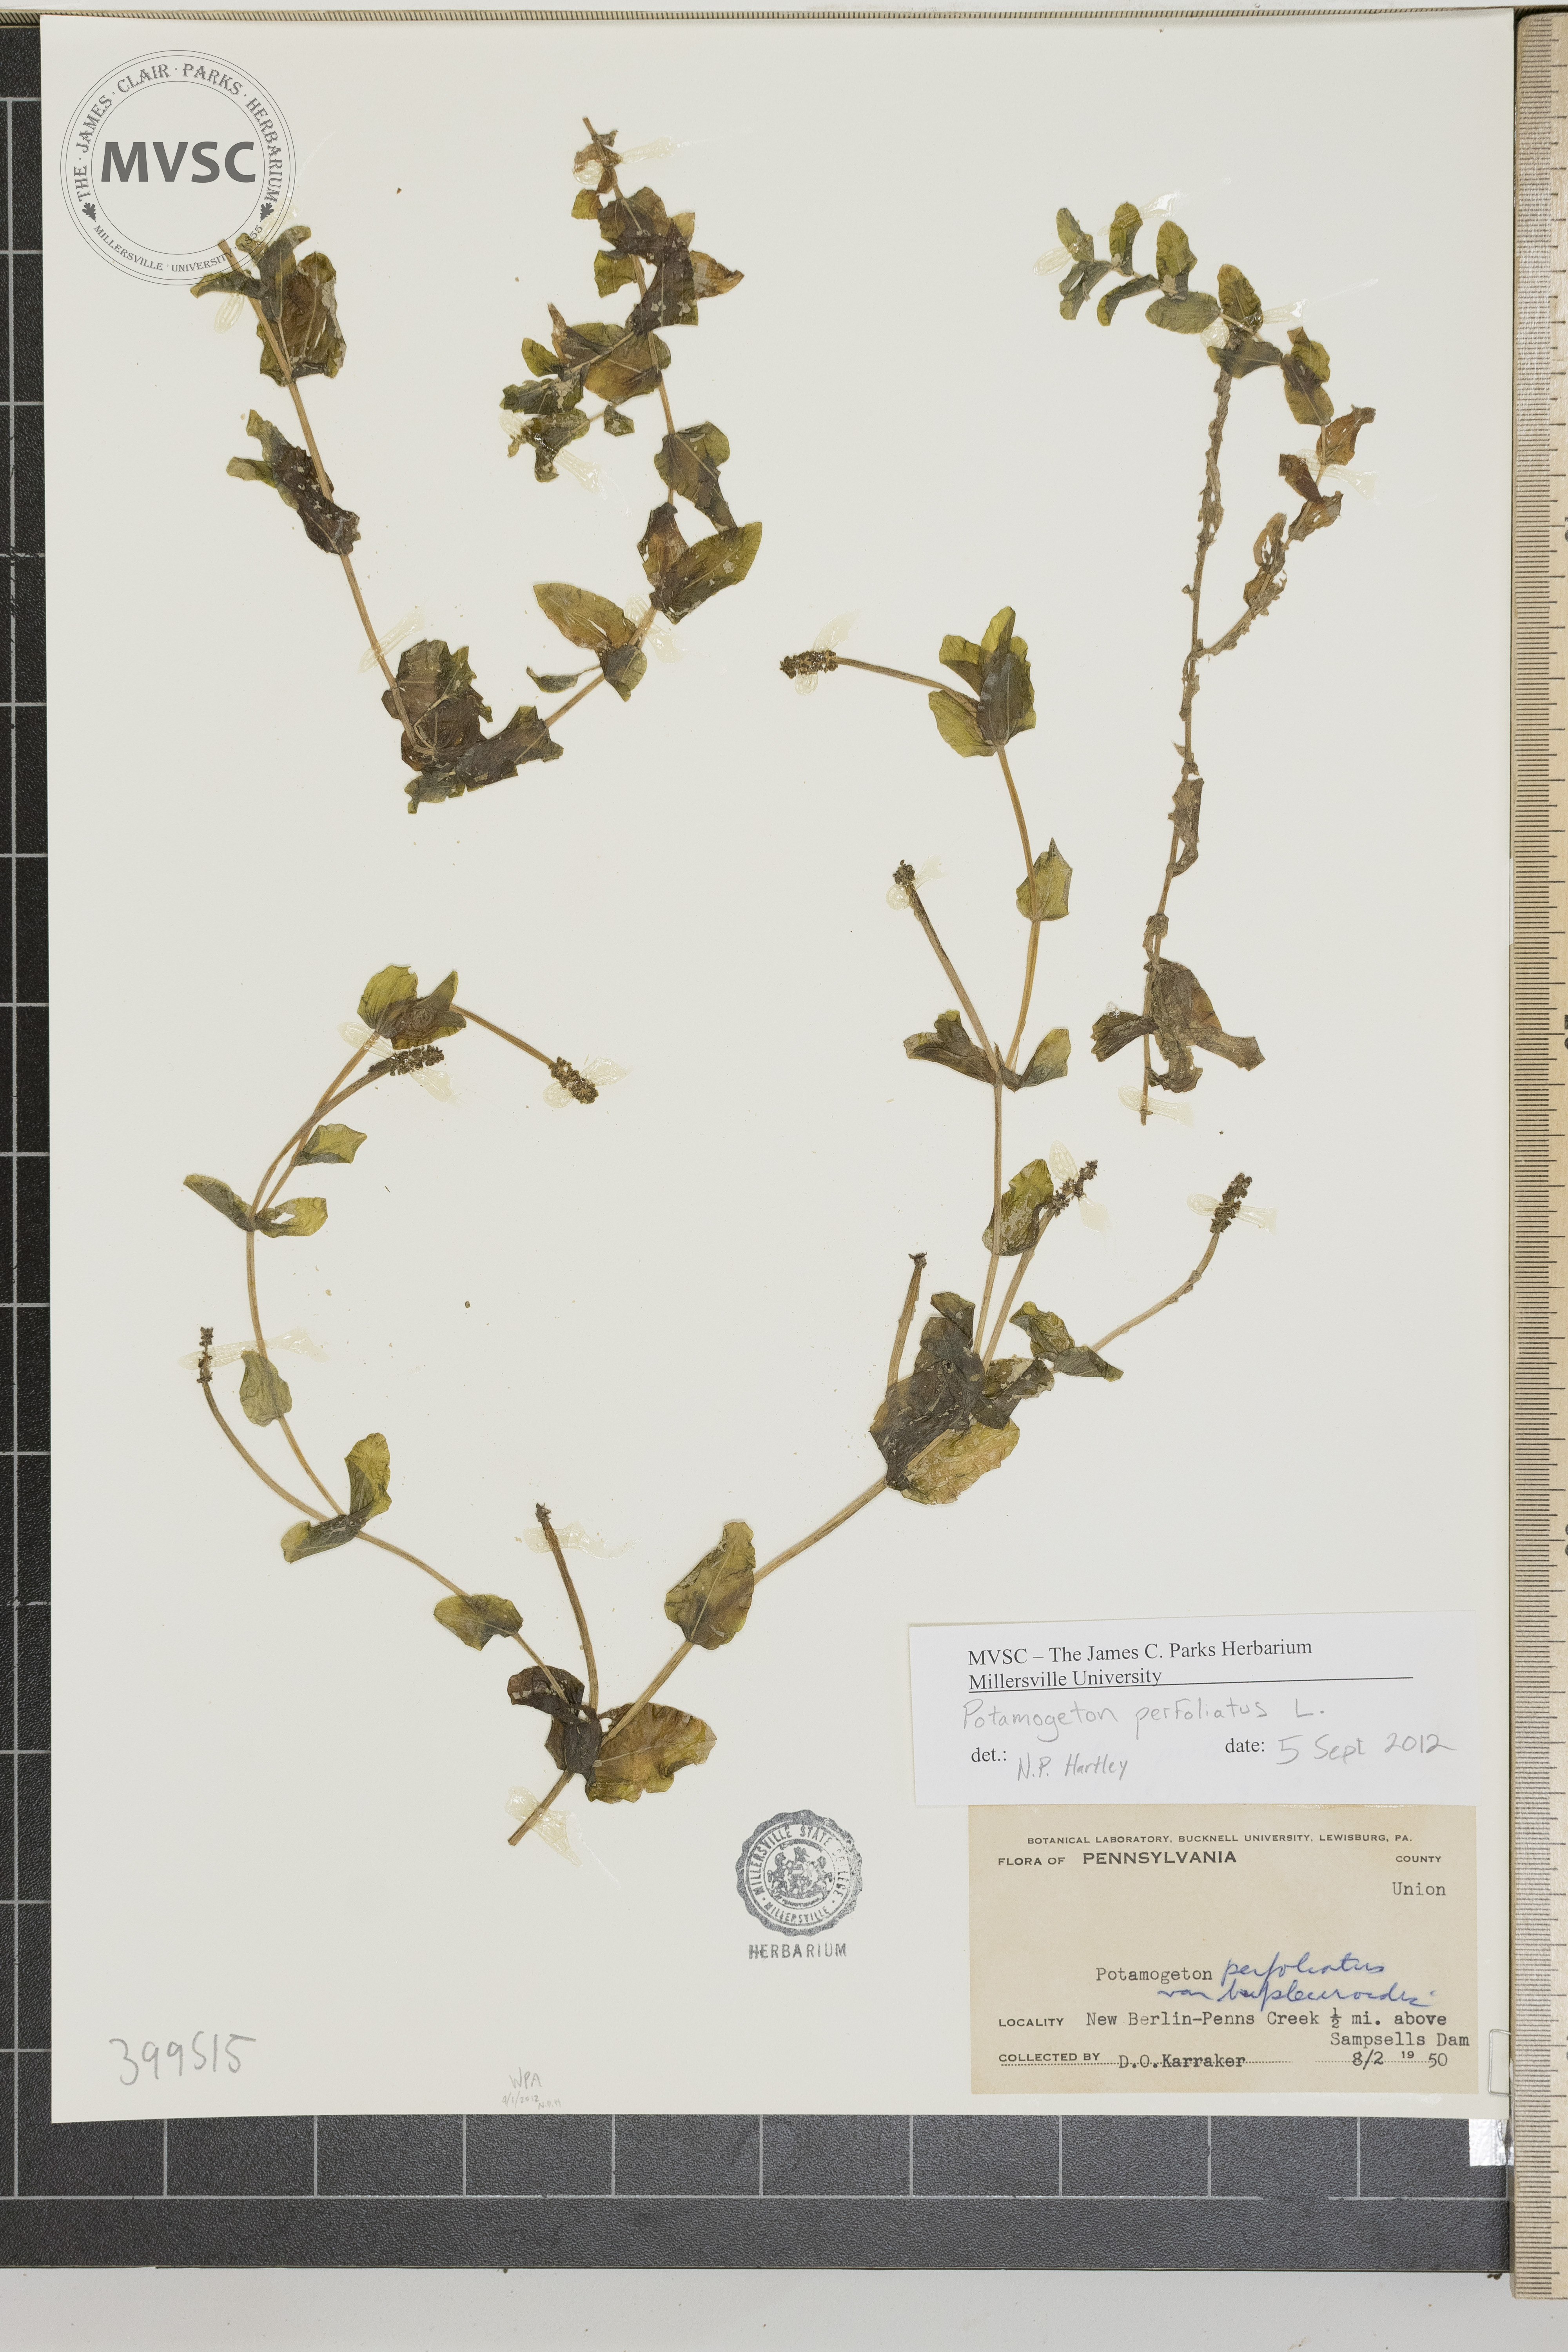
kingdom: Plantae
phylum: Tracheophyta
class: Liliopsida
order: Alismatales
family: Potamogetonaceae
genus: Potamogeton
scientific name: Potamogeton perfoliatus
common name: claspingleaf pondweed
